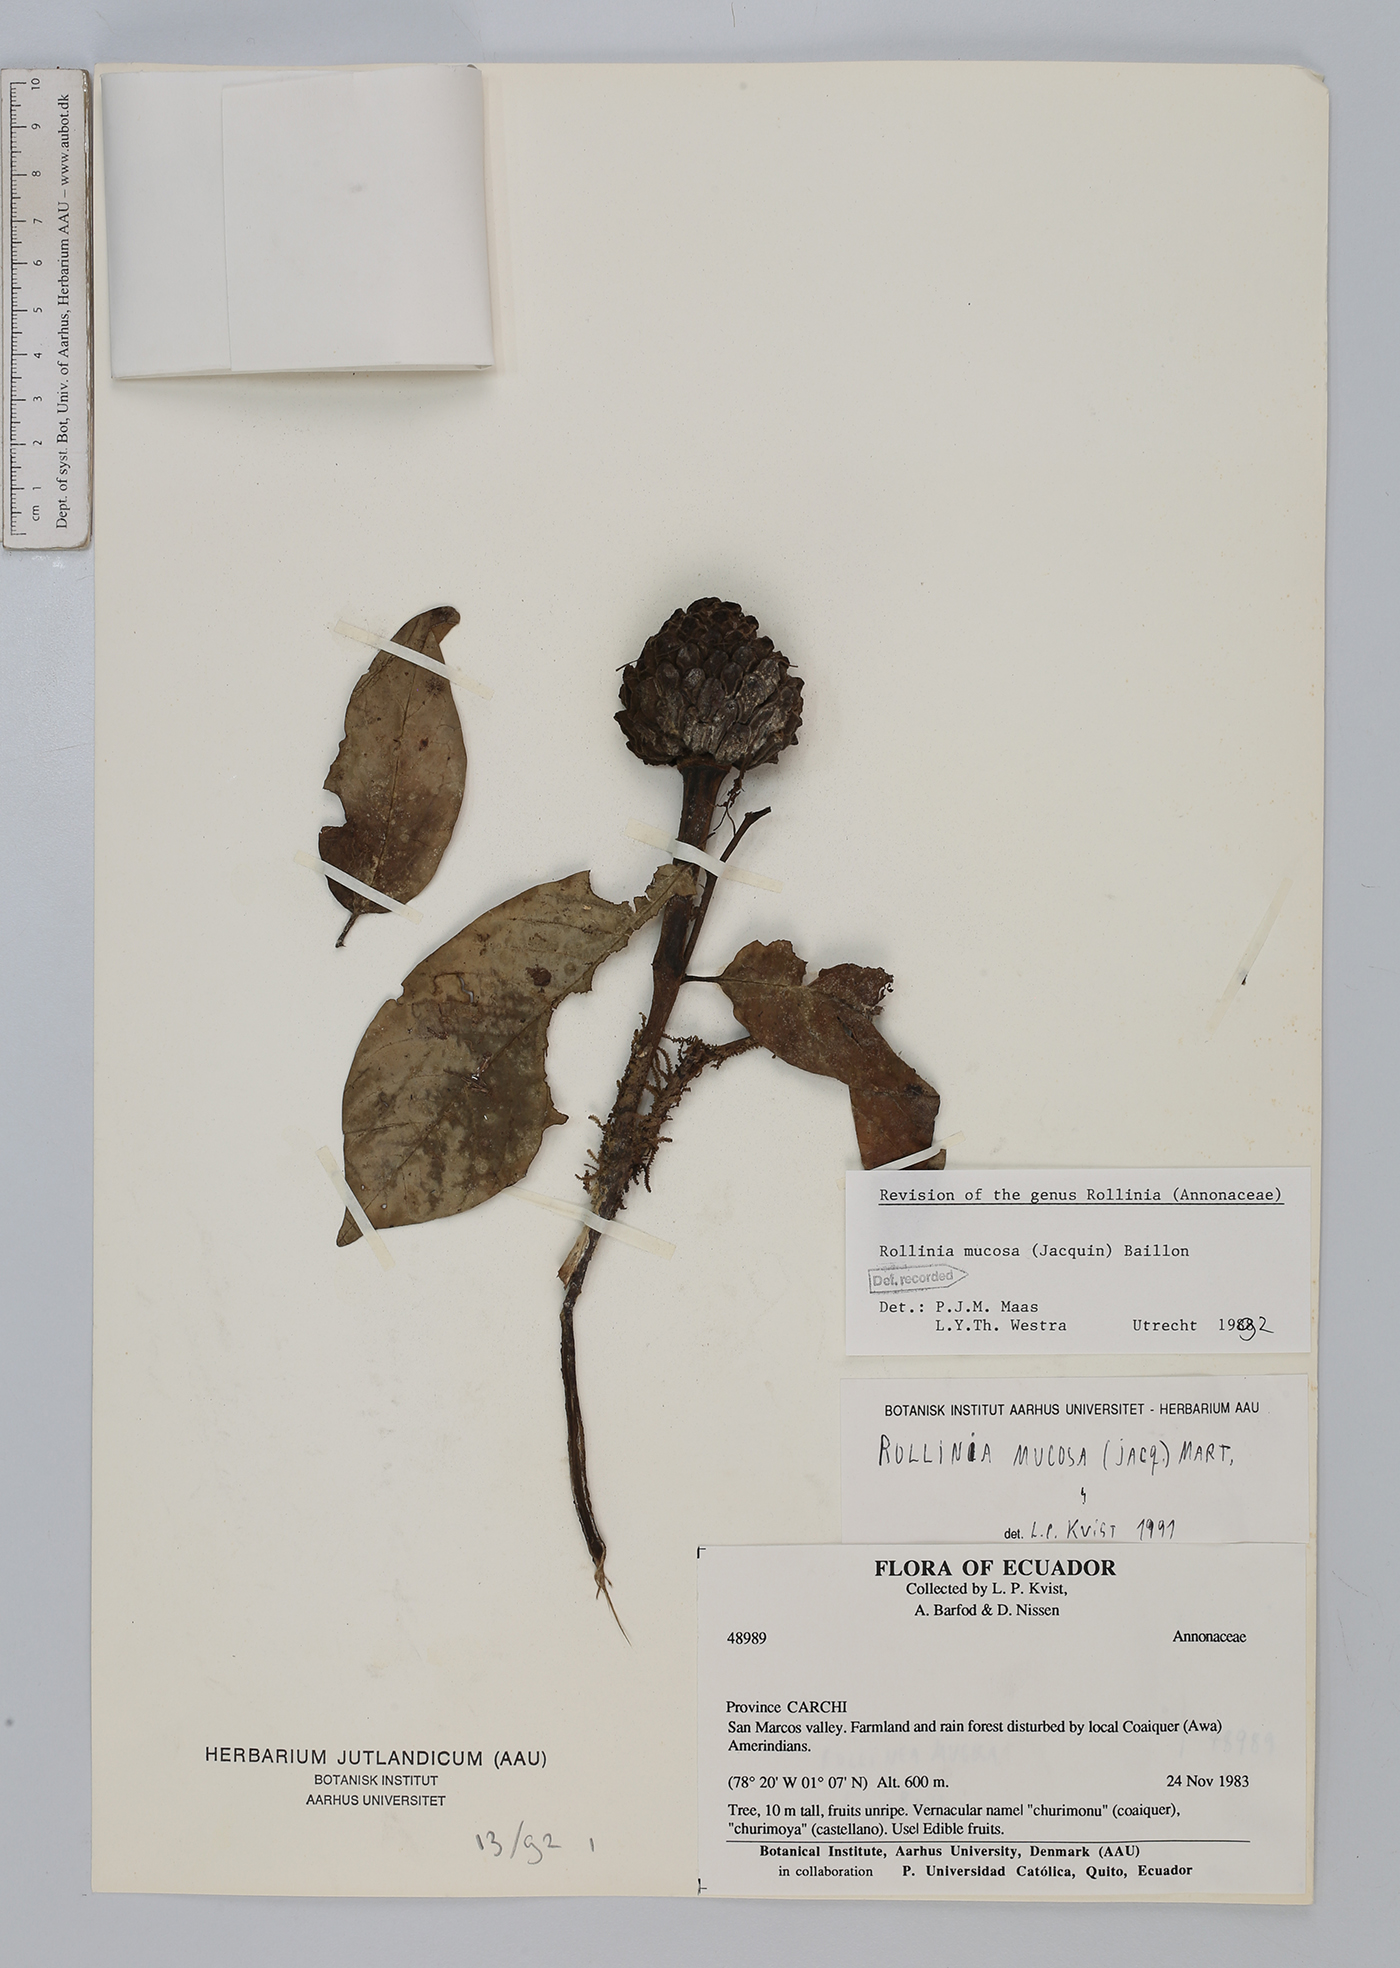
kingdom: Plantae
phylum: Tracheophyta
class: Magnoliopsida
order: Magnoliales
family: Annonaceae
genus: Annona
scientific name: Annona mucosa
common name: Sugar apple
